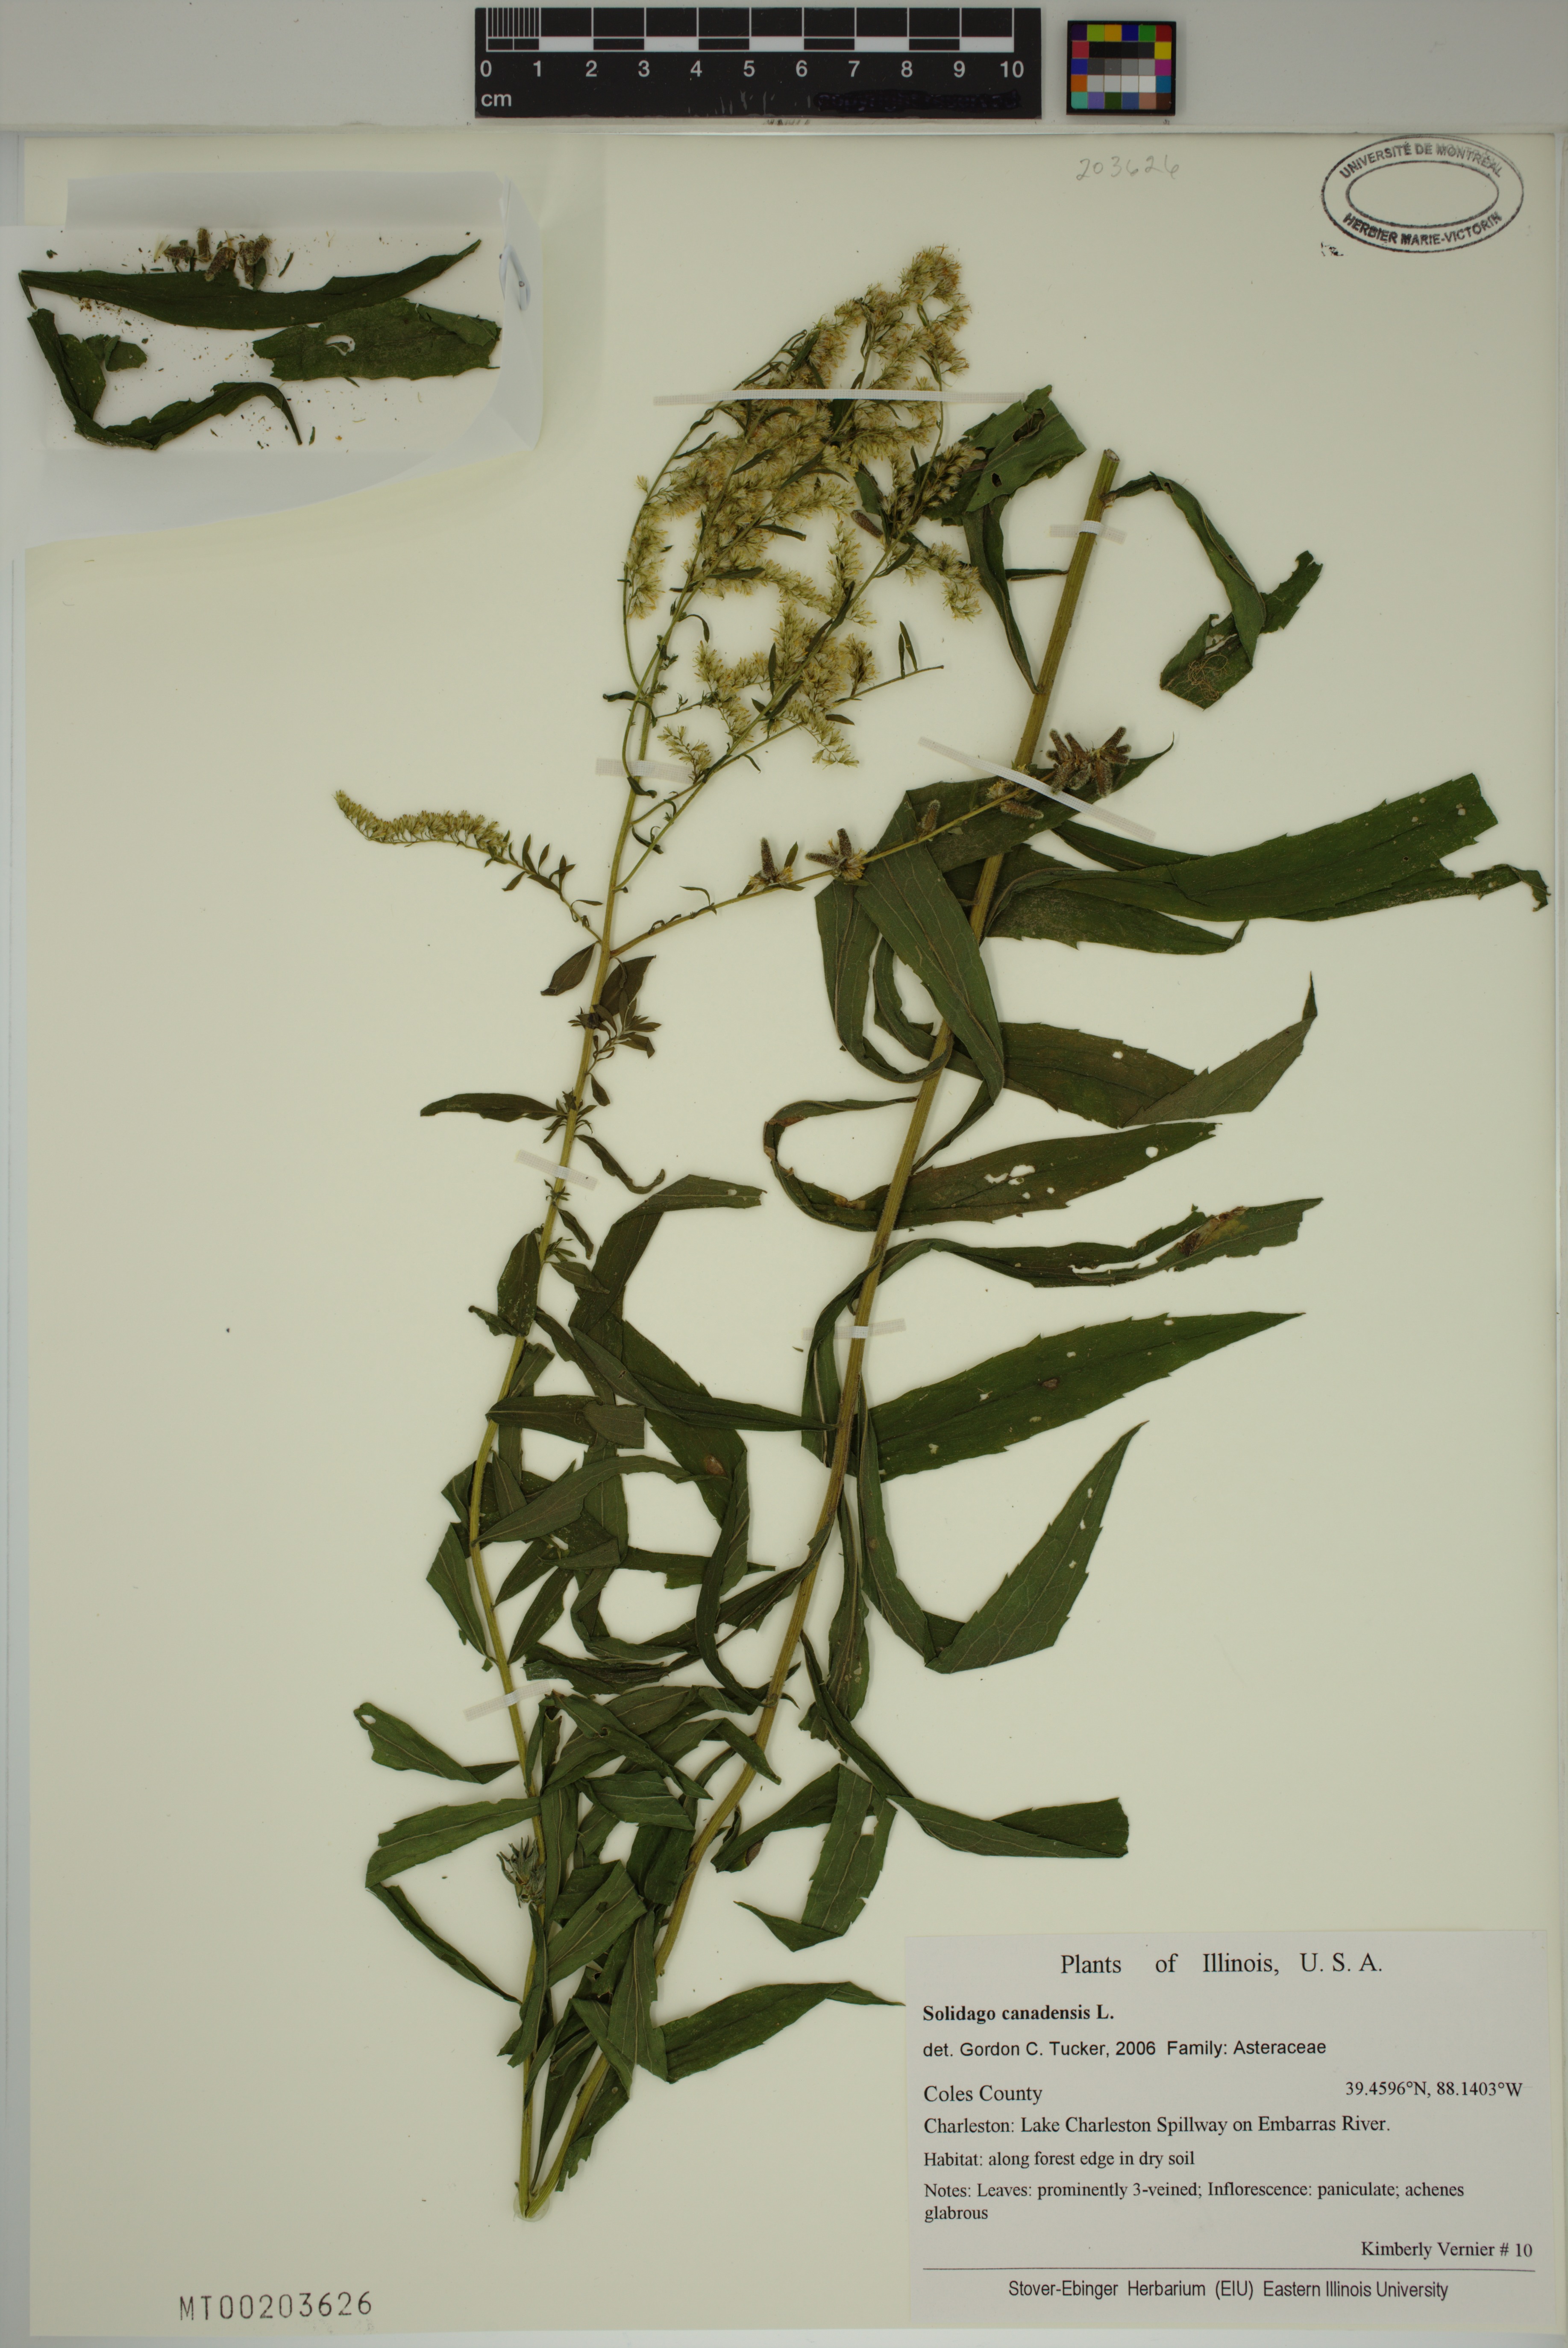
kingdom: Plantae
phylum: Tracheophyta
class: Magnoliopsida
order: Asterales
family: Asteraceae
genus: Solidago
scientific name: Solidago canadensis
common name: Canada goldenrod
